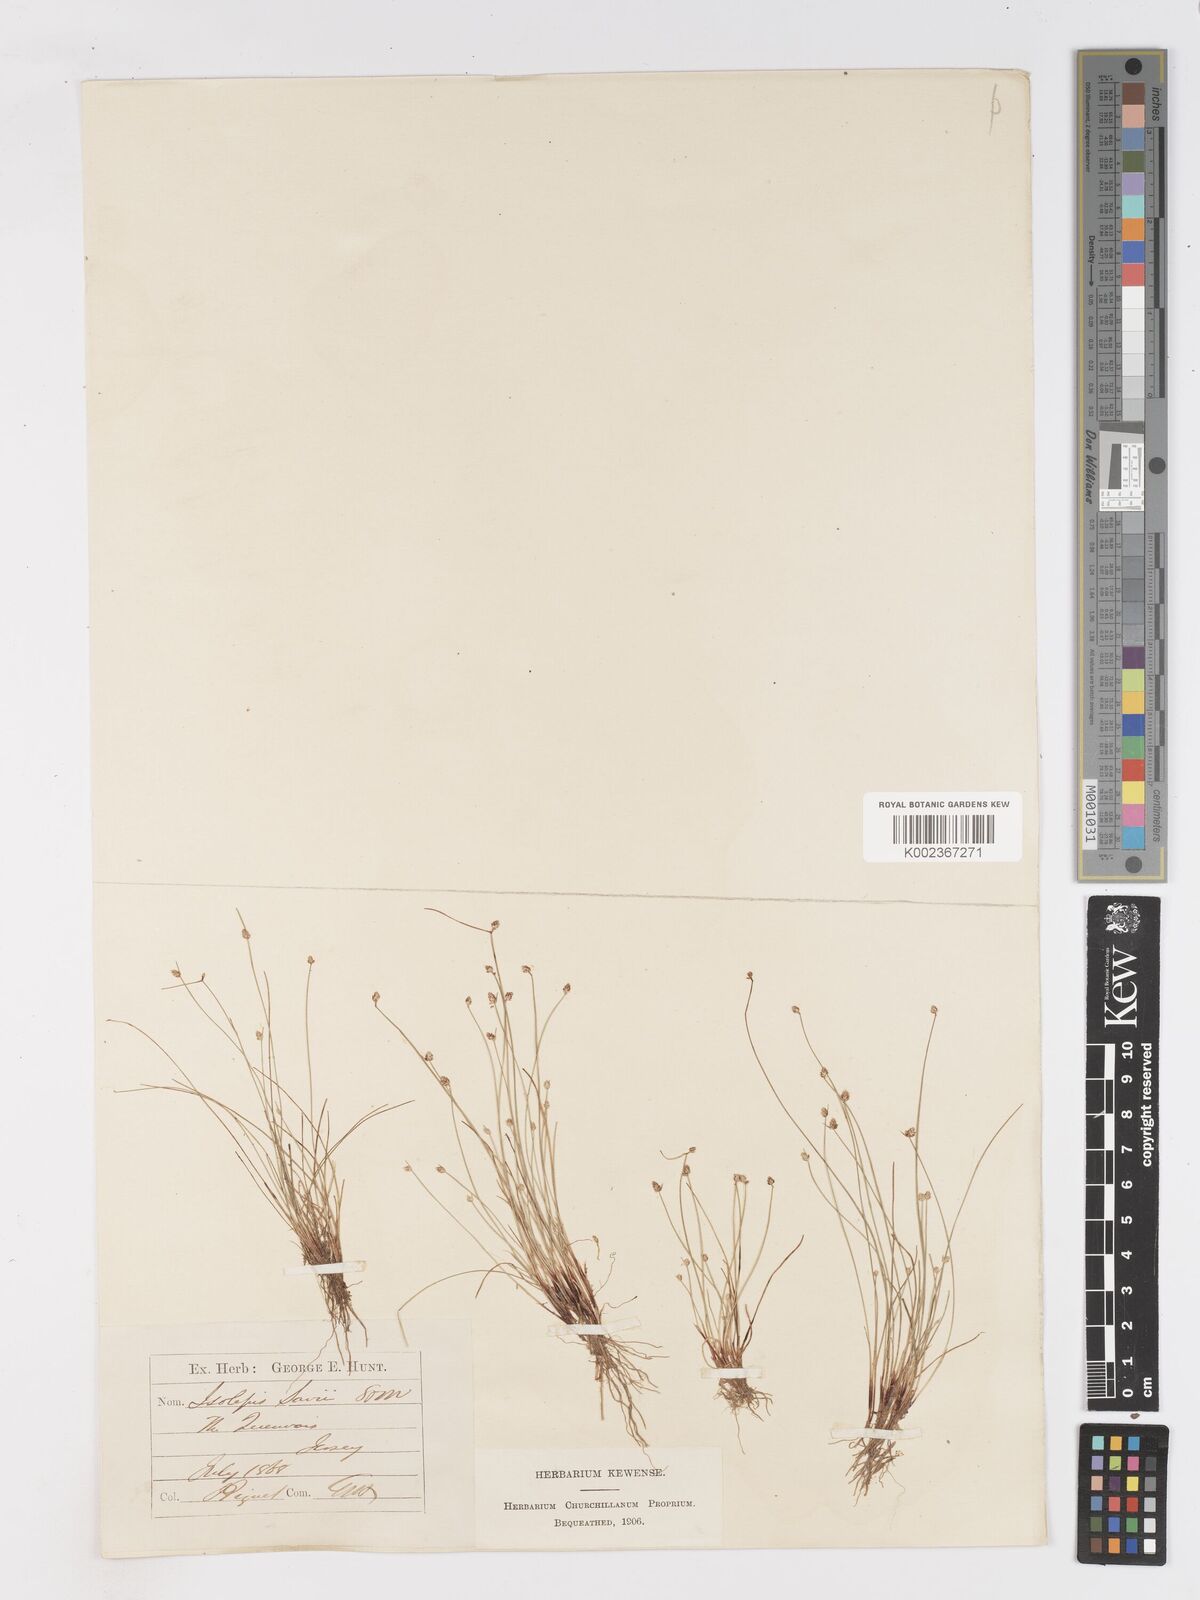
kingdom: Plantae
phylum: Tracheophyta
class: Liliopsida
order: Poales
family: Cyperaceae
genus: Isolepis
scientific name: Isolepis cernua
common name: Slender club-rush
